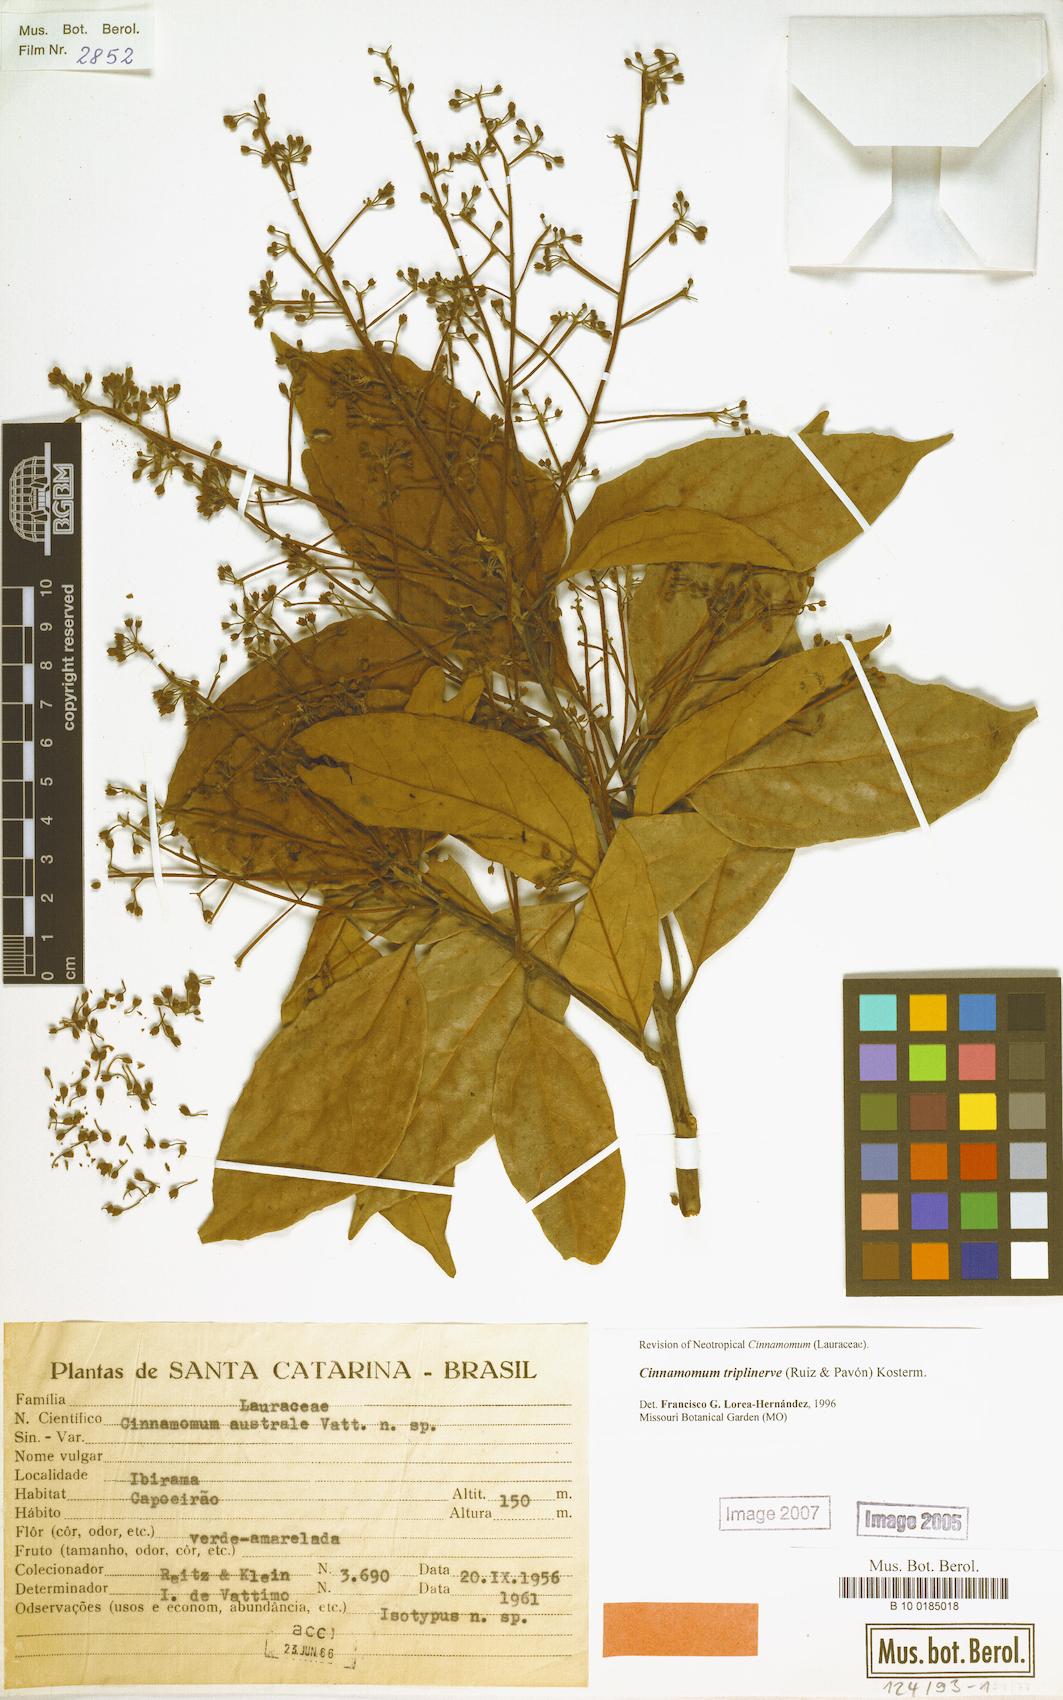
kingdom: Plantae
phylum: Tracheophyta
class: Magnoliopsida
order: Laurales
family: Lauraceae
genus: Aiouea
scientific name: Aiouea montana
